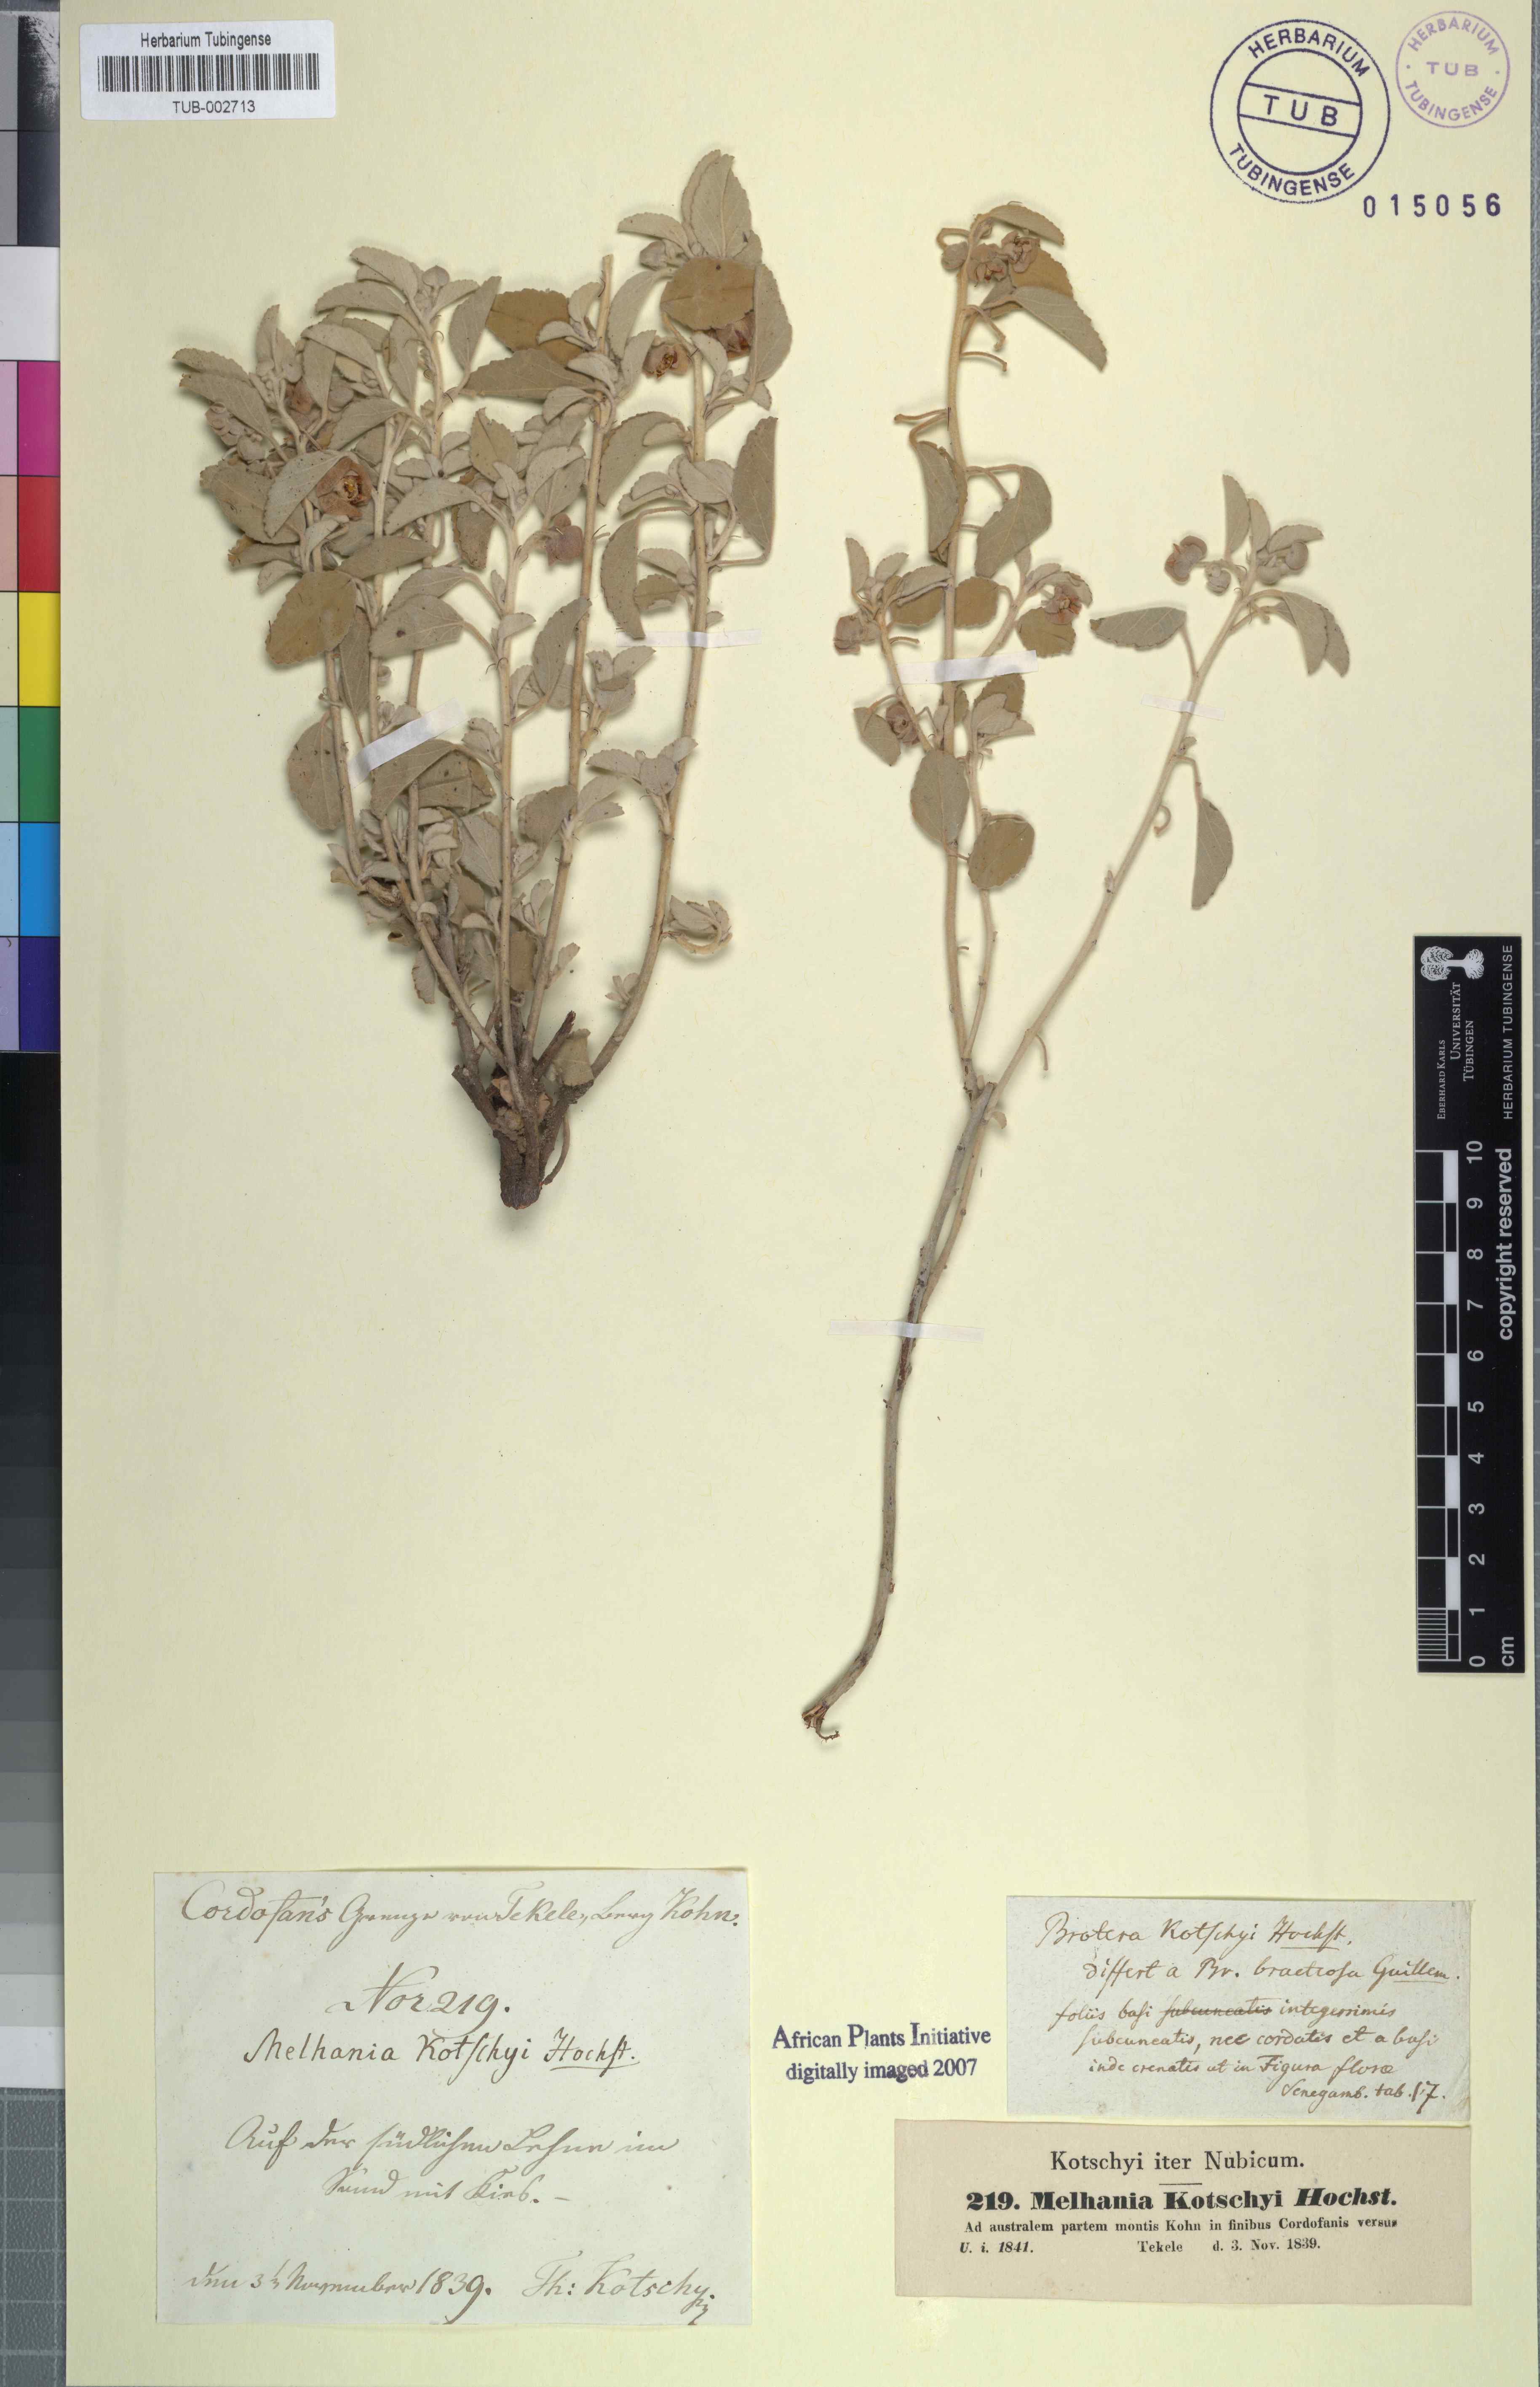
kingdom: Plantae
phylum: Tracheophyta
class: Magnoliopsida
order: Malvales
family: Malvaceae
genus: Melhania
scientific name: Melhania denhamii
